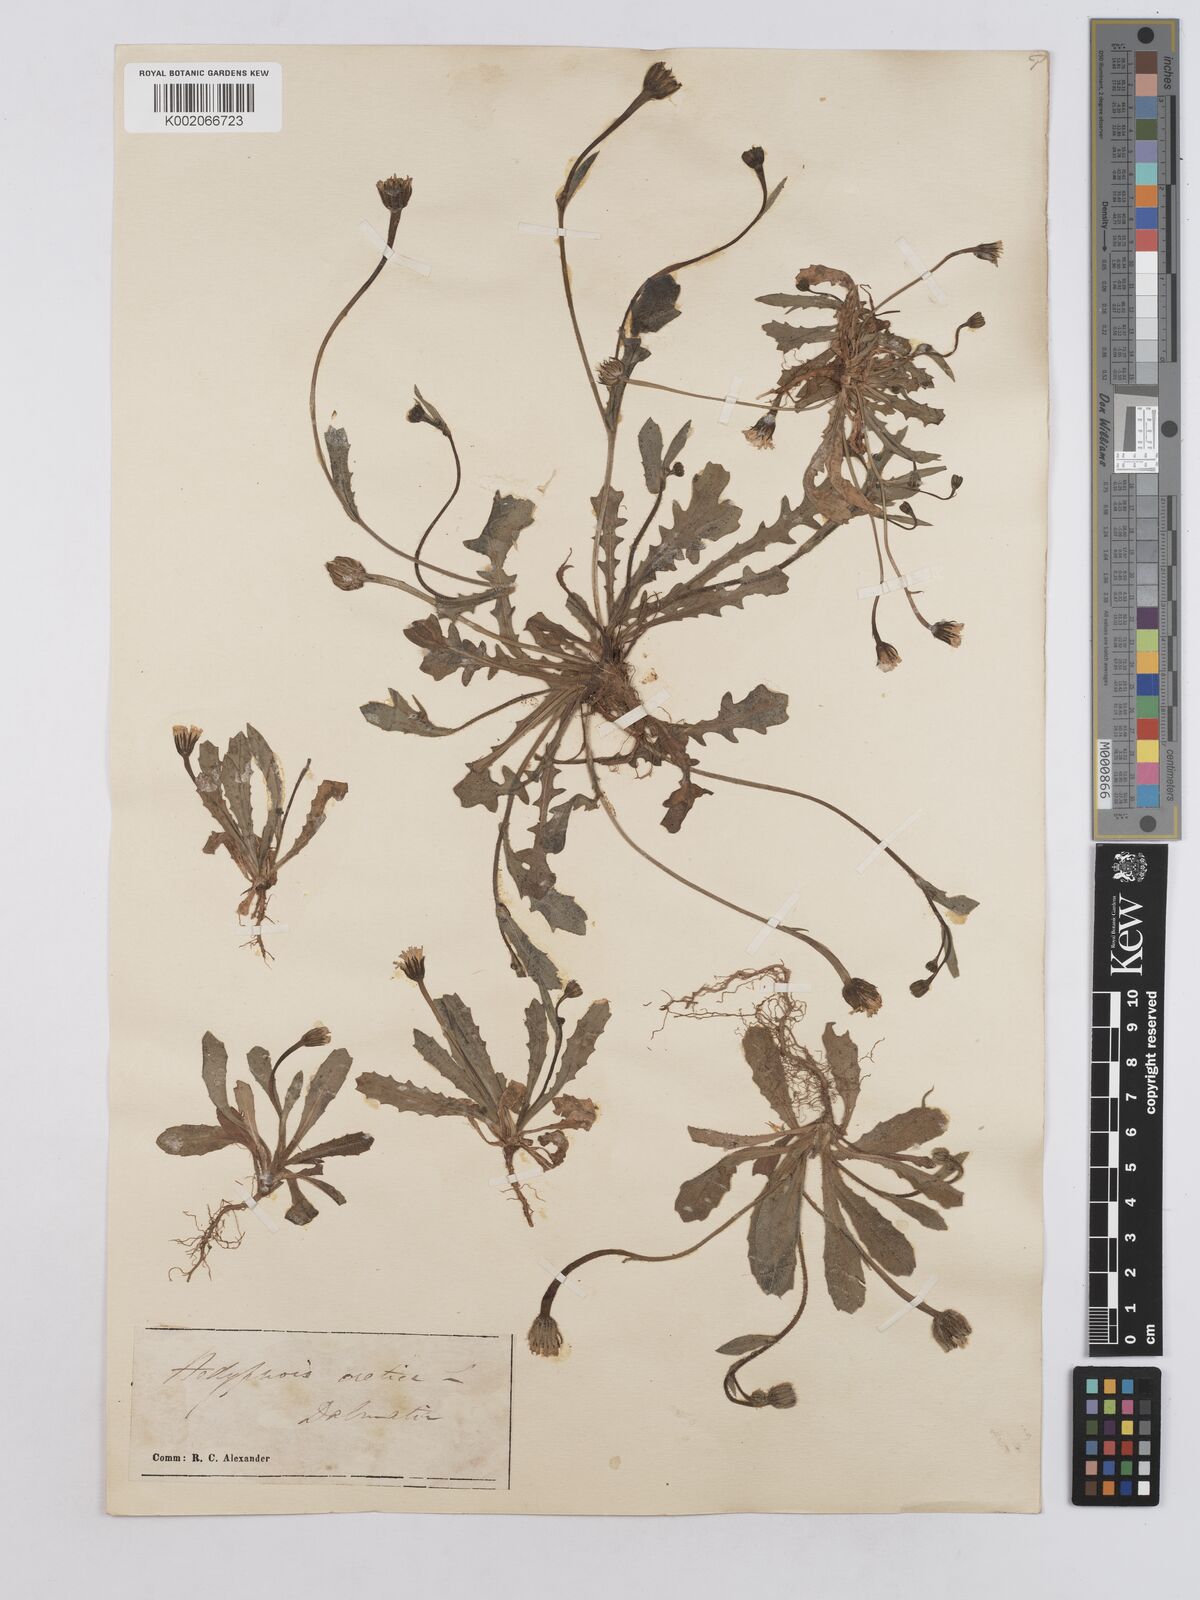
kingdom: Plantae
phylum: Tracheophyta
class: Magnoliopsida
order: Asterales
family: Asteraceae
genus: Hedypnois
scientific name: Hedypnois rhagadioloides
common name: Cretan weed
